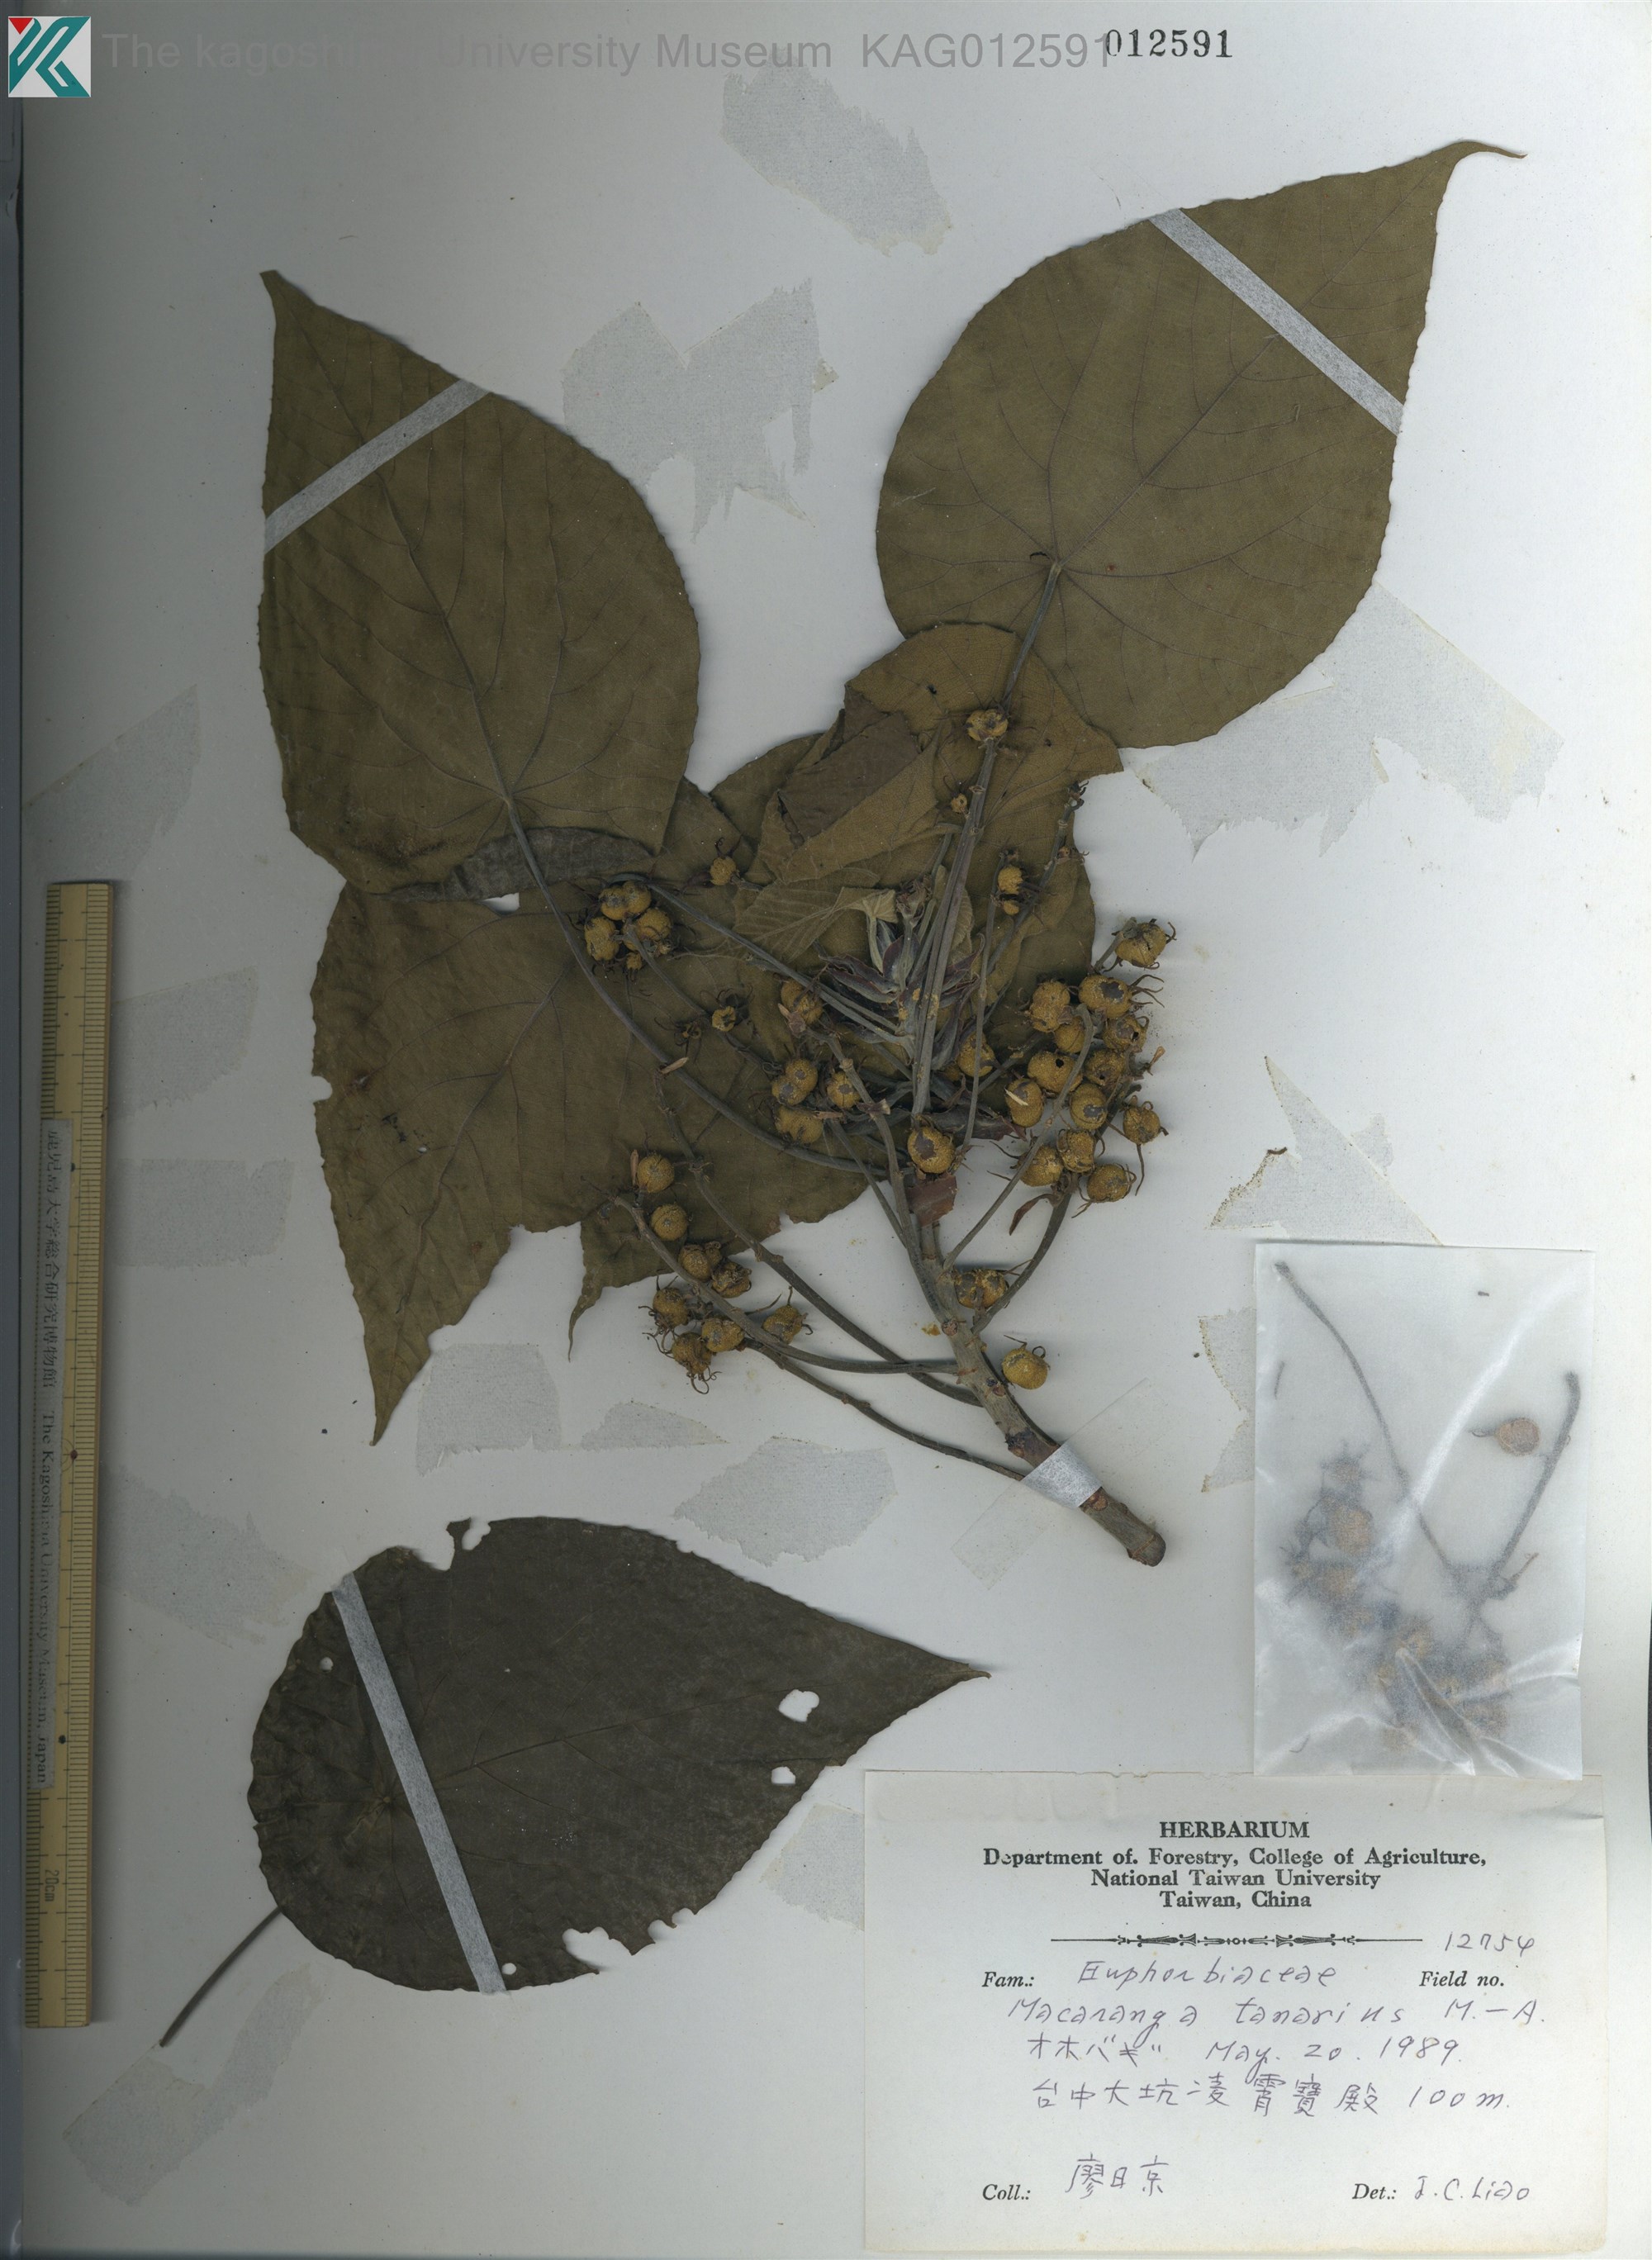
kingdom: Plantae
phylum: Tracheophyta
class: Magnoliopsida
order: Malpighiales
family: Euphorbiaceae
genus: Macaranga
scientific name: Macaranga tanarius
